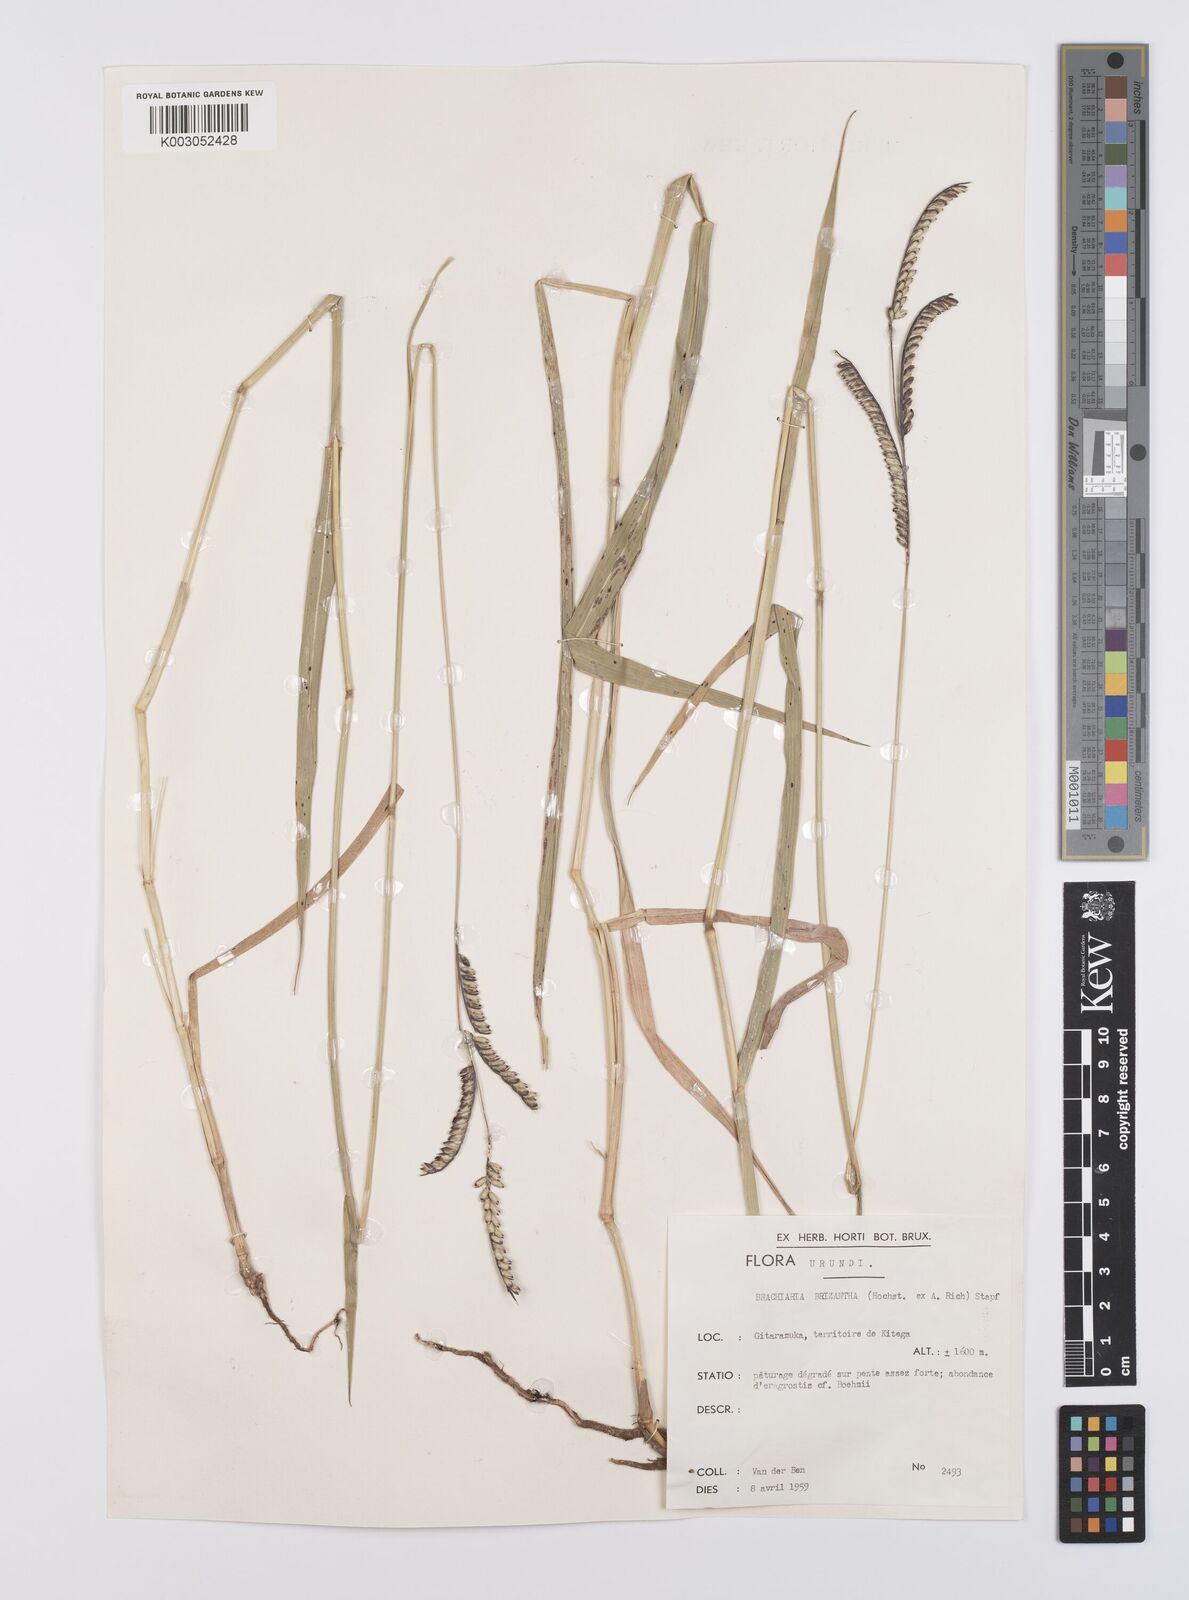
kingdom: Plantae
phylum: Tracheophyta
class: Liliopsida
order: Poales
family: Poaceae
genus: Urochloa
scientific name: Urochloa brizantha
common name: Palisade signalgrass
